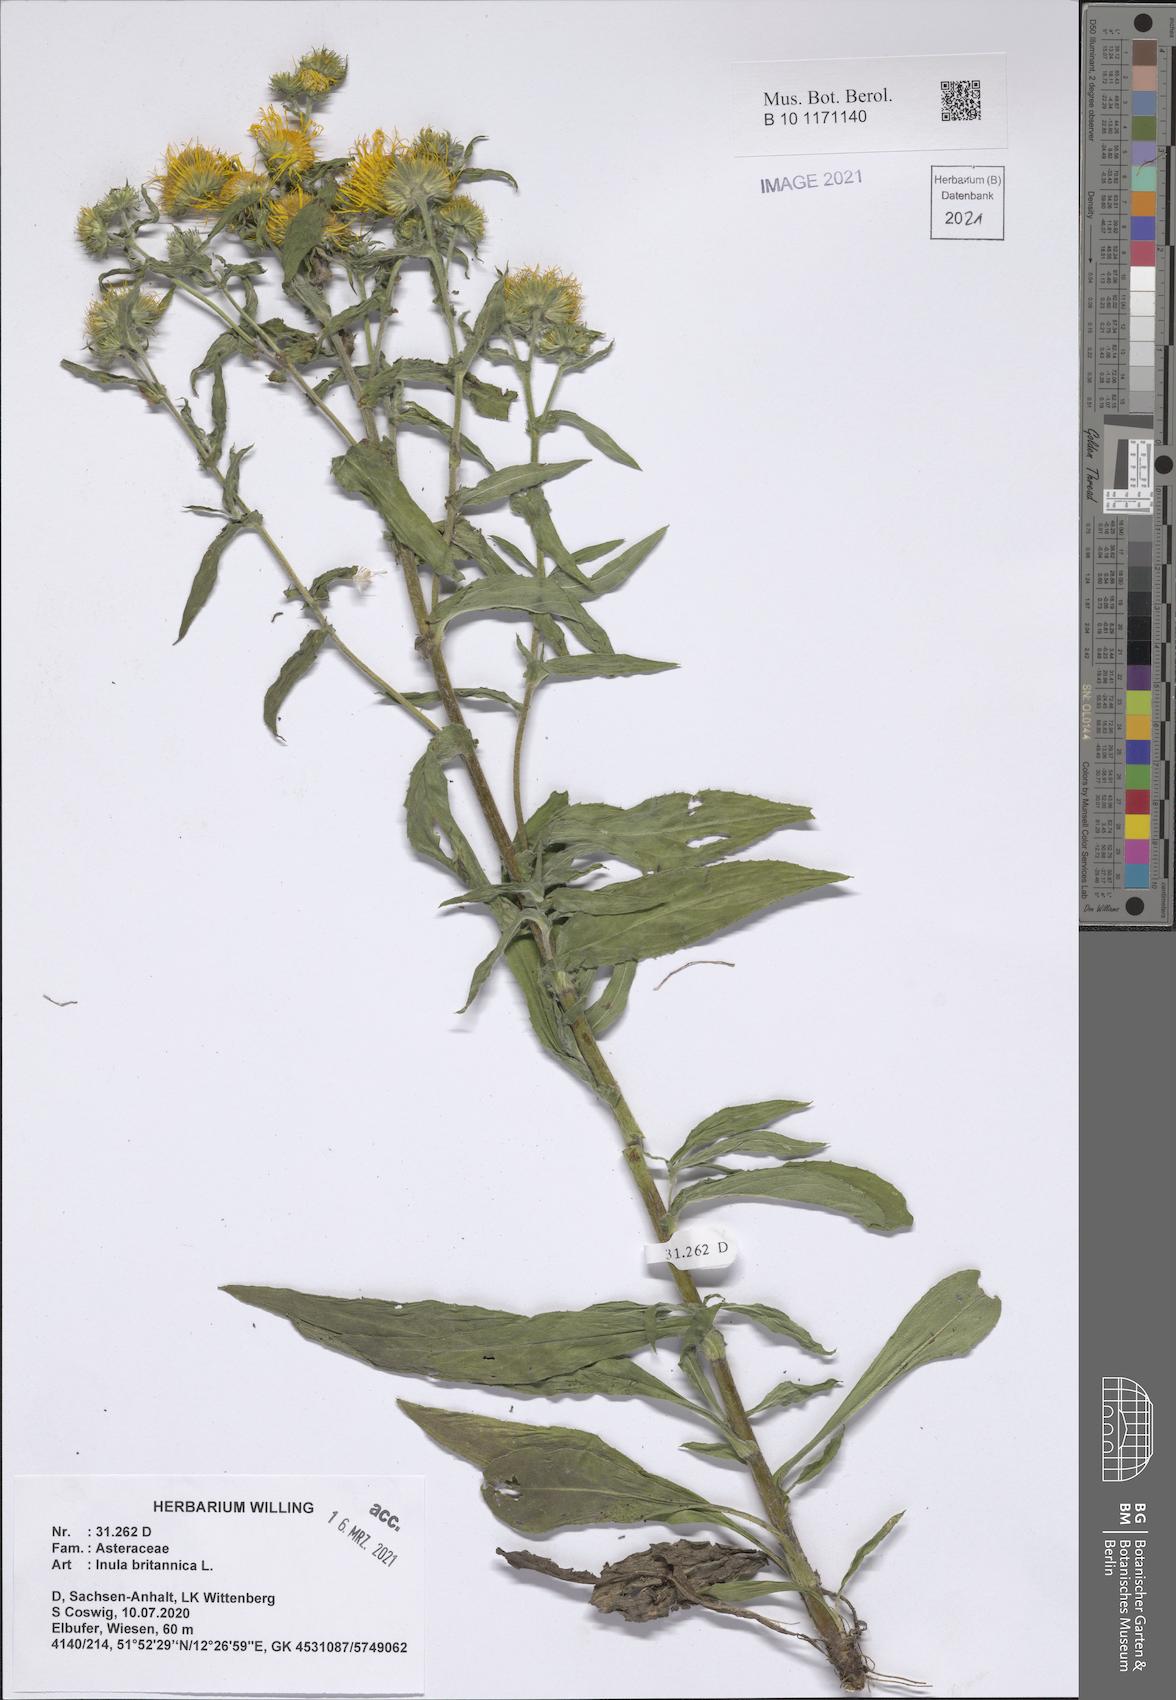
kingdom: Plantae
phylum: Tracheophyta
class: Magnoliopsida
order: Asterales
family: Asteraceae
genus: Pentanema
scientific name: Pentanema britannicum
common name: British elecampane
